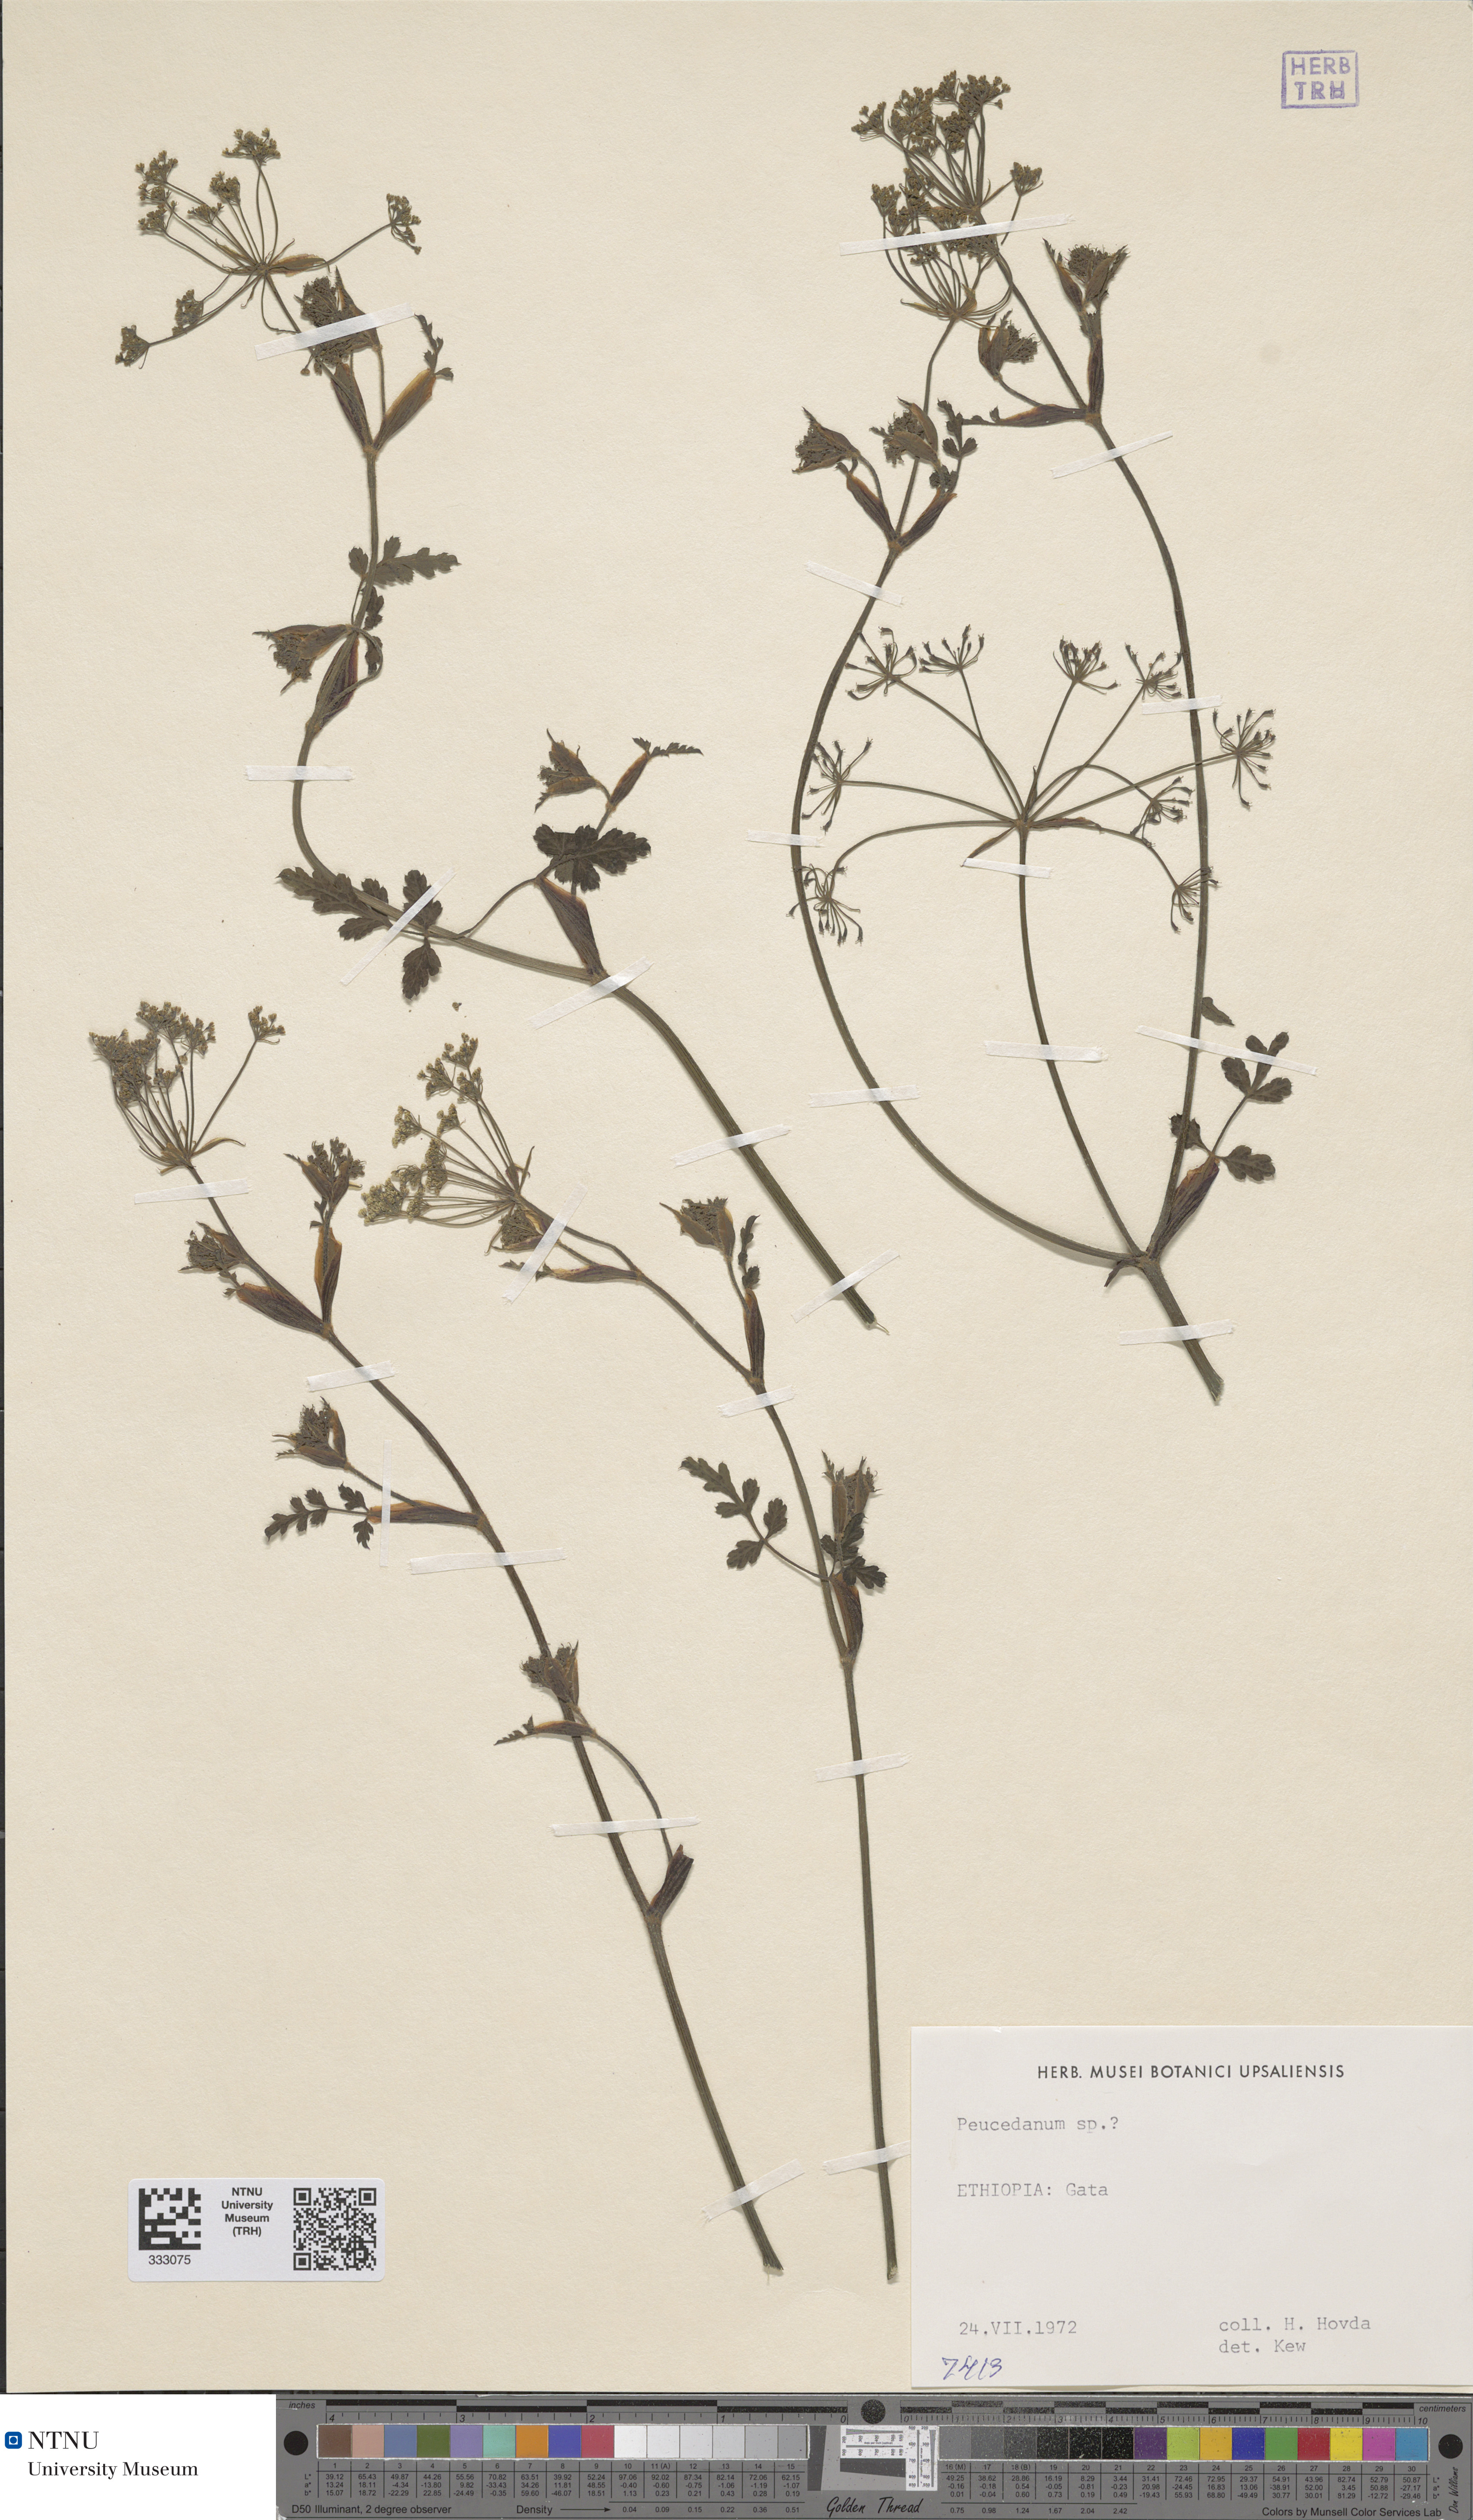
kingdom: Plantae
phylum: Tracheophyta
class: Magnoliopsida
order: Apiales
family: Apiaceae
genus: Peucedanum
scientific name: Peucedanum
